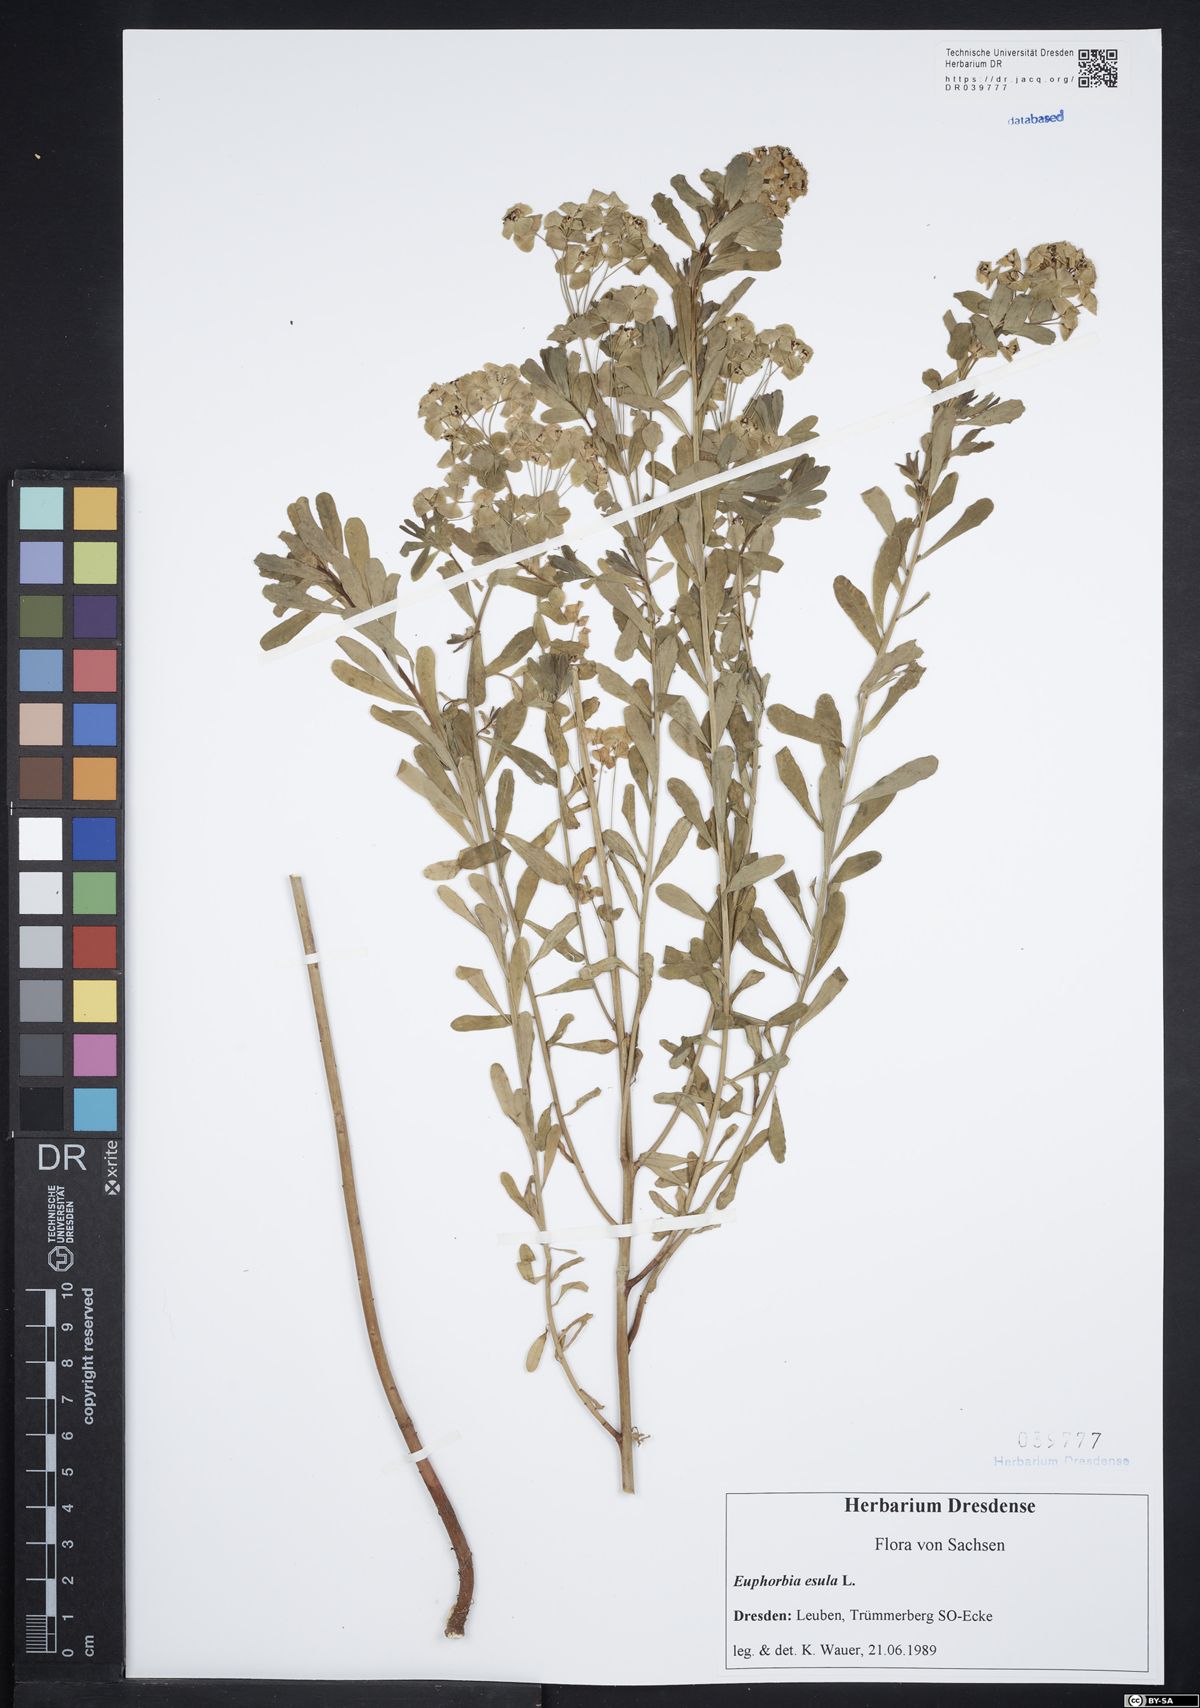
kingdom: Plantae
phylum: Tracheophyta
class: Magnoliopsida
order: Malpighiales
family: Euphorbiaceae
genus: Euphorbia
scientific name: Euphorbia esula
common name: Leafy spurge
